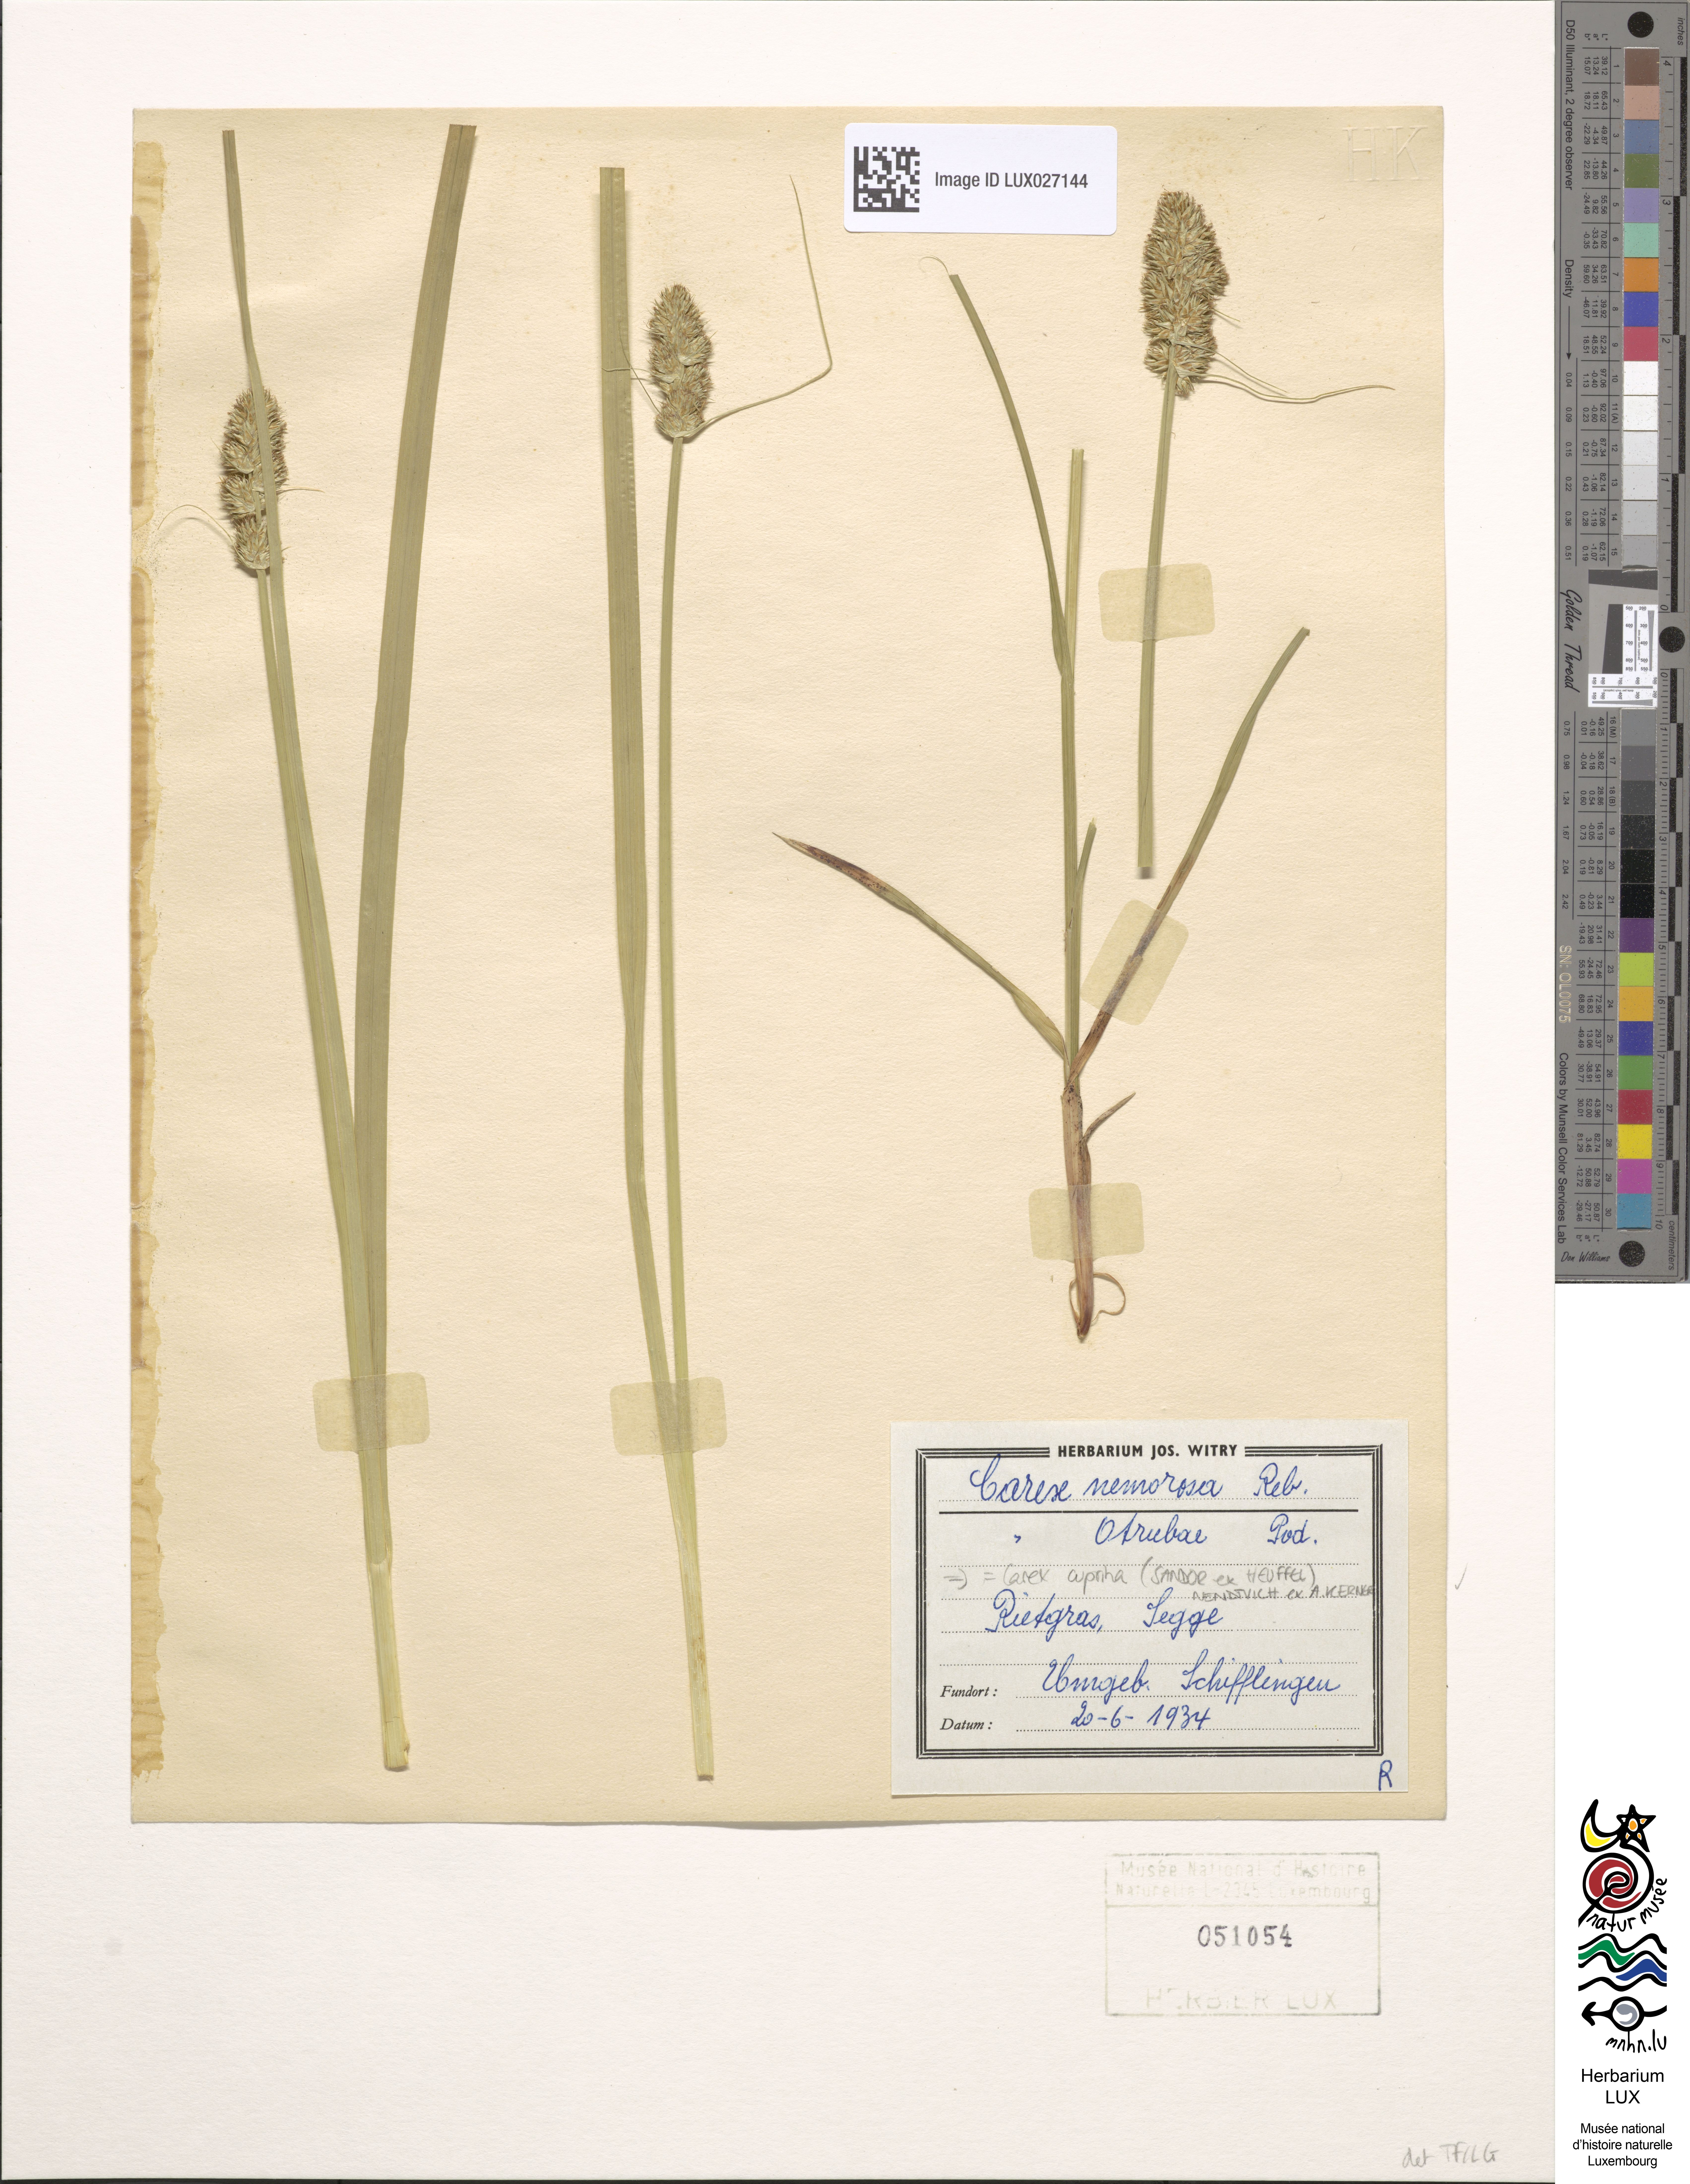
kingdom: Plantae
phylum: Tracheophyta
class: Liliopsida
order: Poales
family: Cyperaceae
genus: Carex
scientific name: Carex leersii
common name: Leers' sedge
